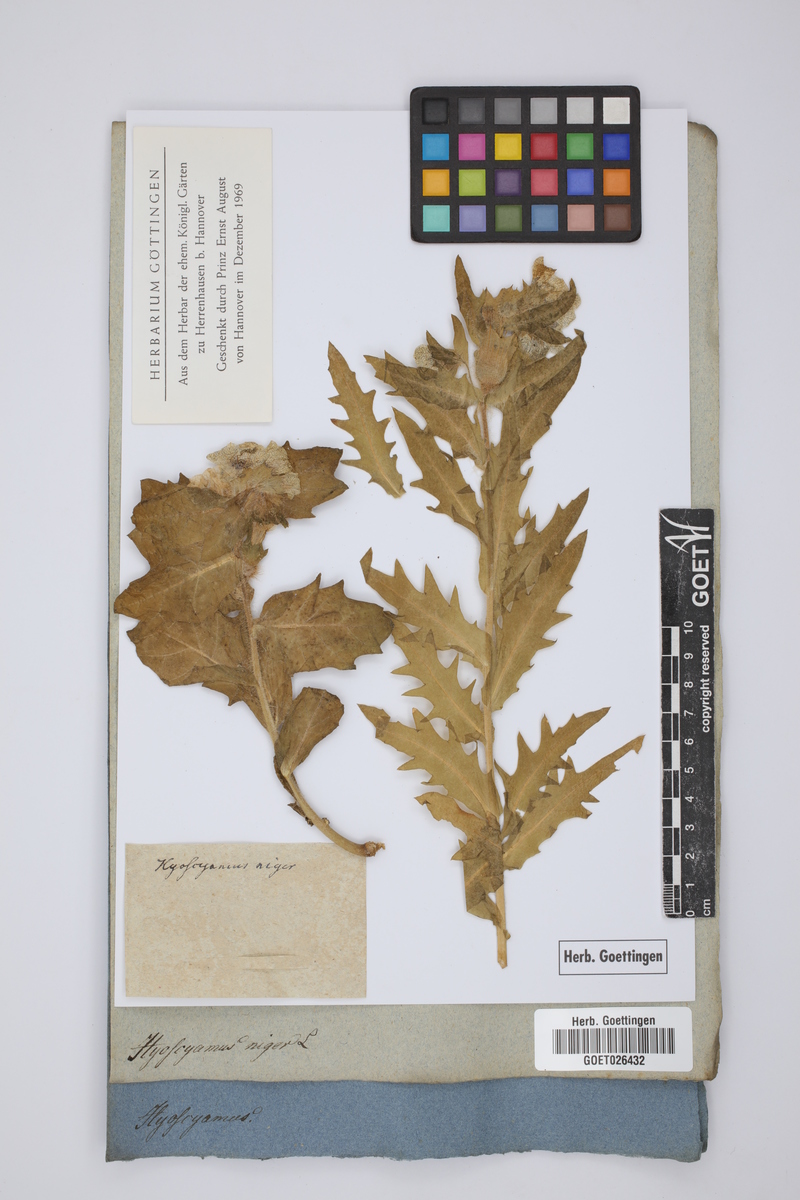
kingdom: Plantae
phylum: Tracheophyta
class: Magnoliopsida
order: Solanales
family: Solanaceae
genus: Hyoscyamus
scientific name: Hyoscyamus niger
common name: Henbane
